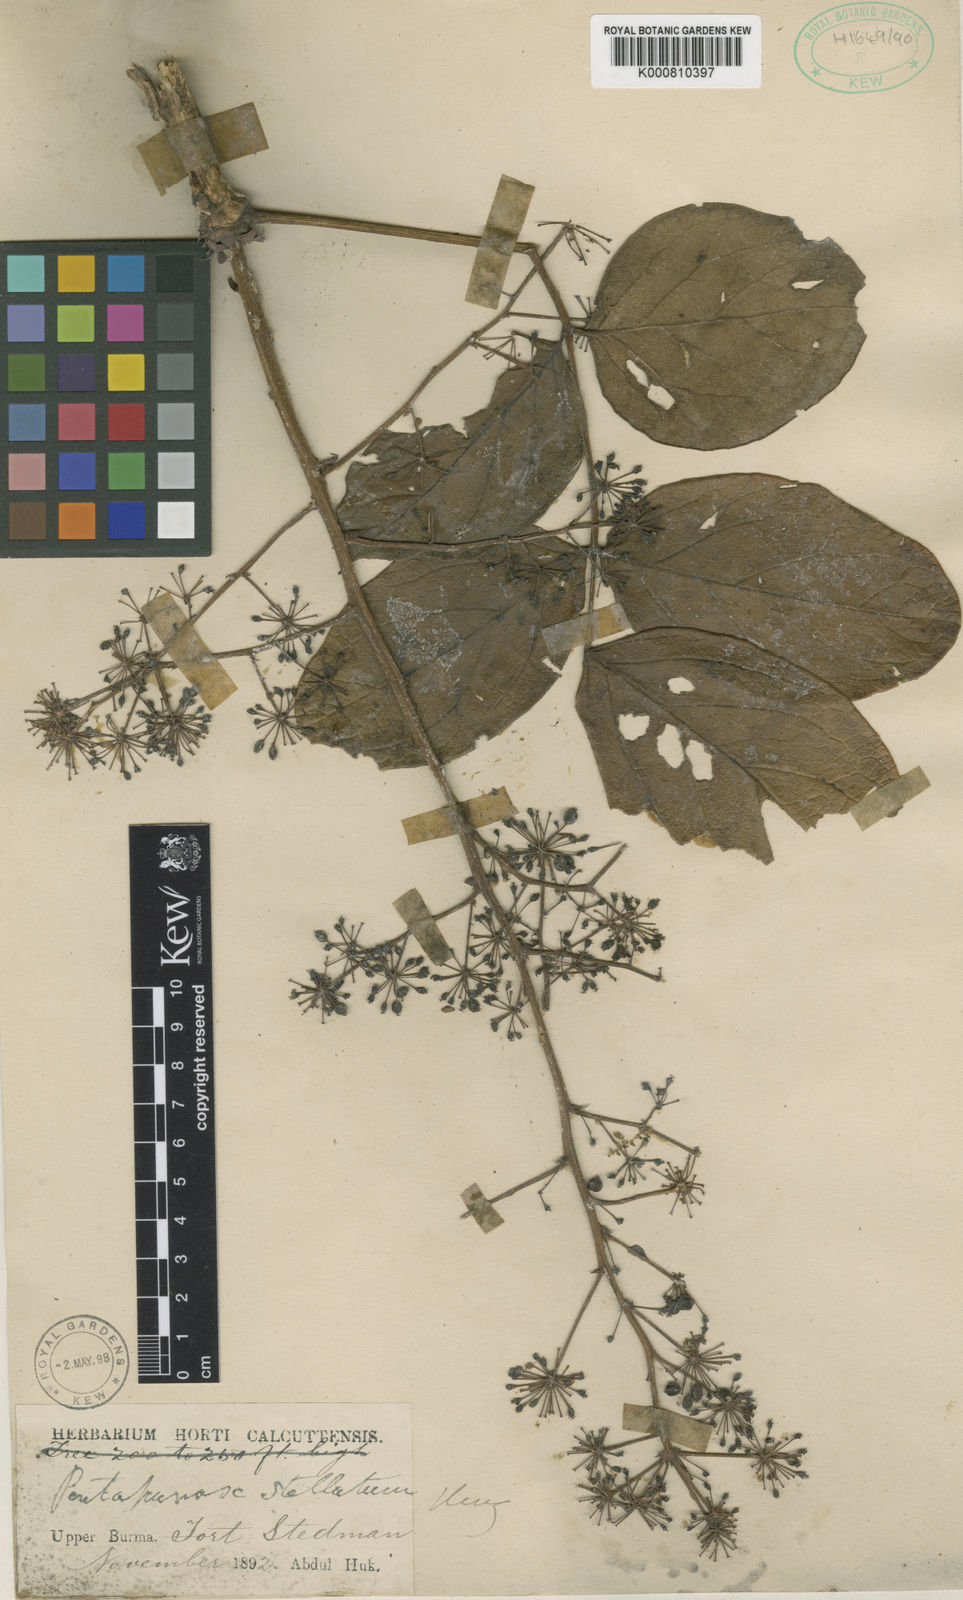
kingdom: Plantae
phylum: Tracheophyta
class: Magnoliopsida
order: Apiales
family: Araliaceae
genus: Aralia
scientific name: Aralia stellata
